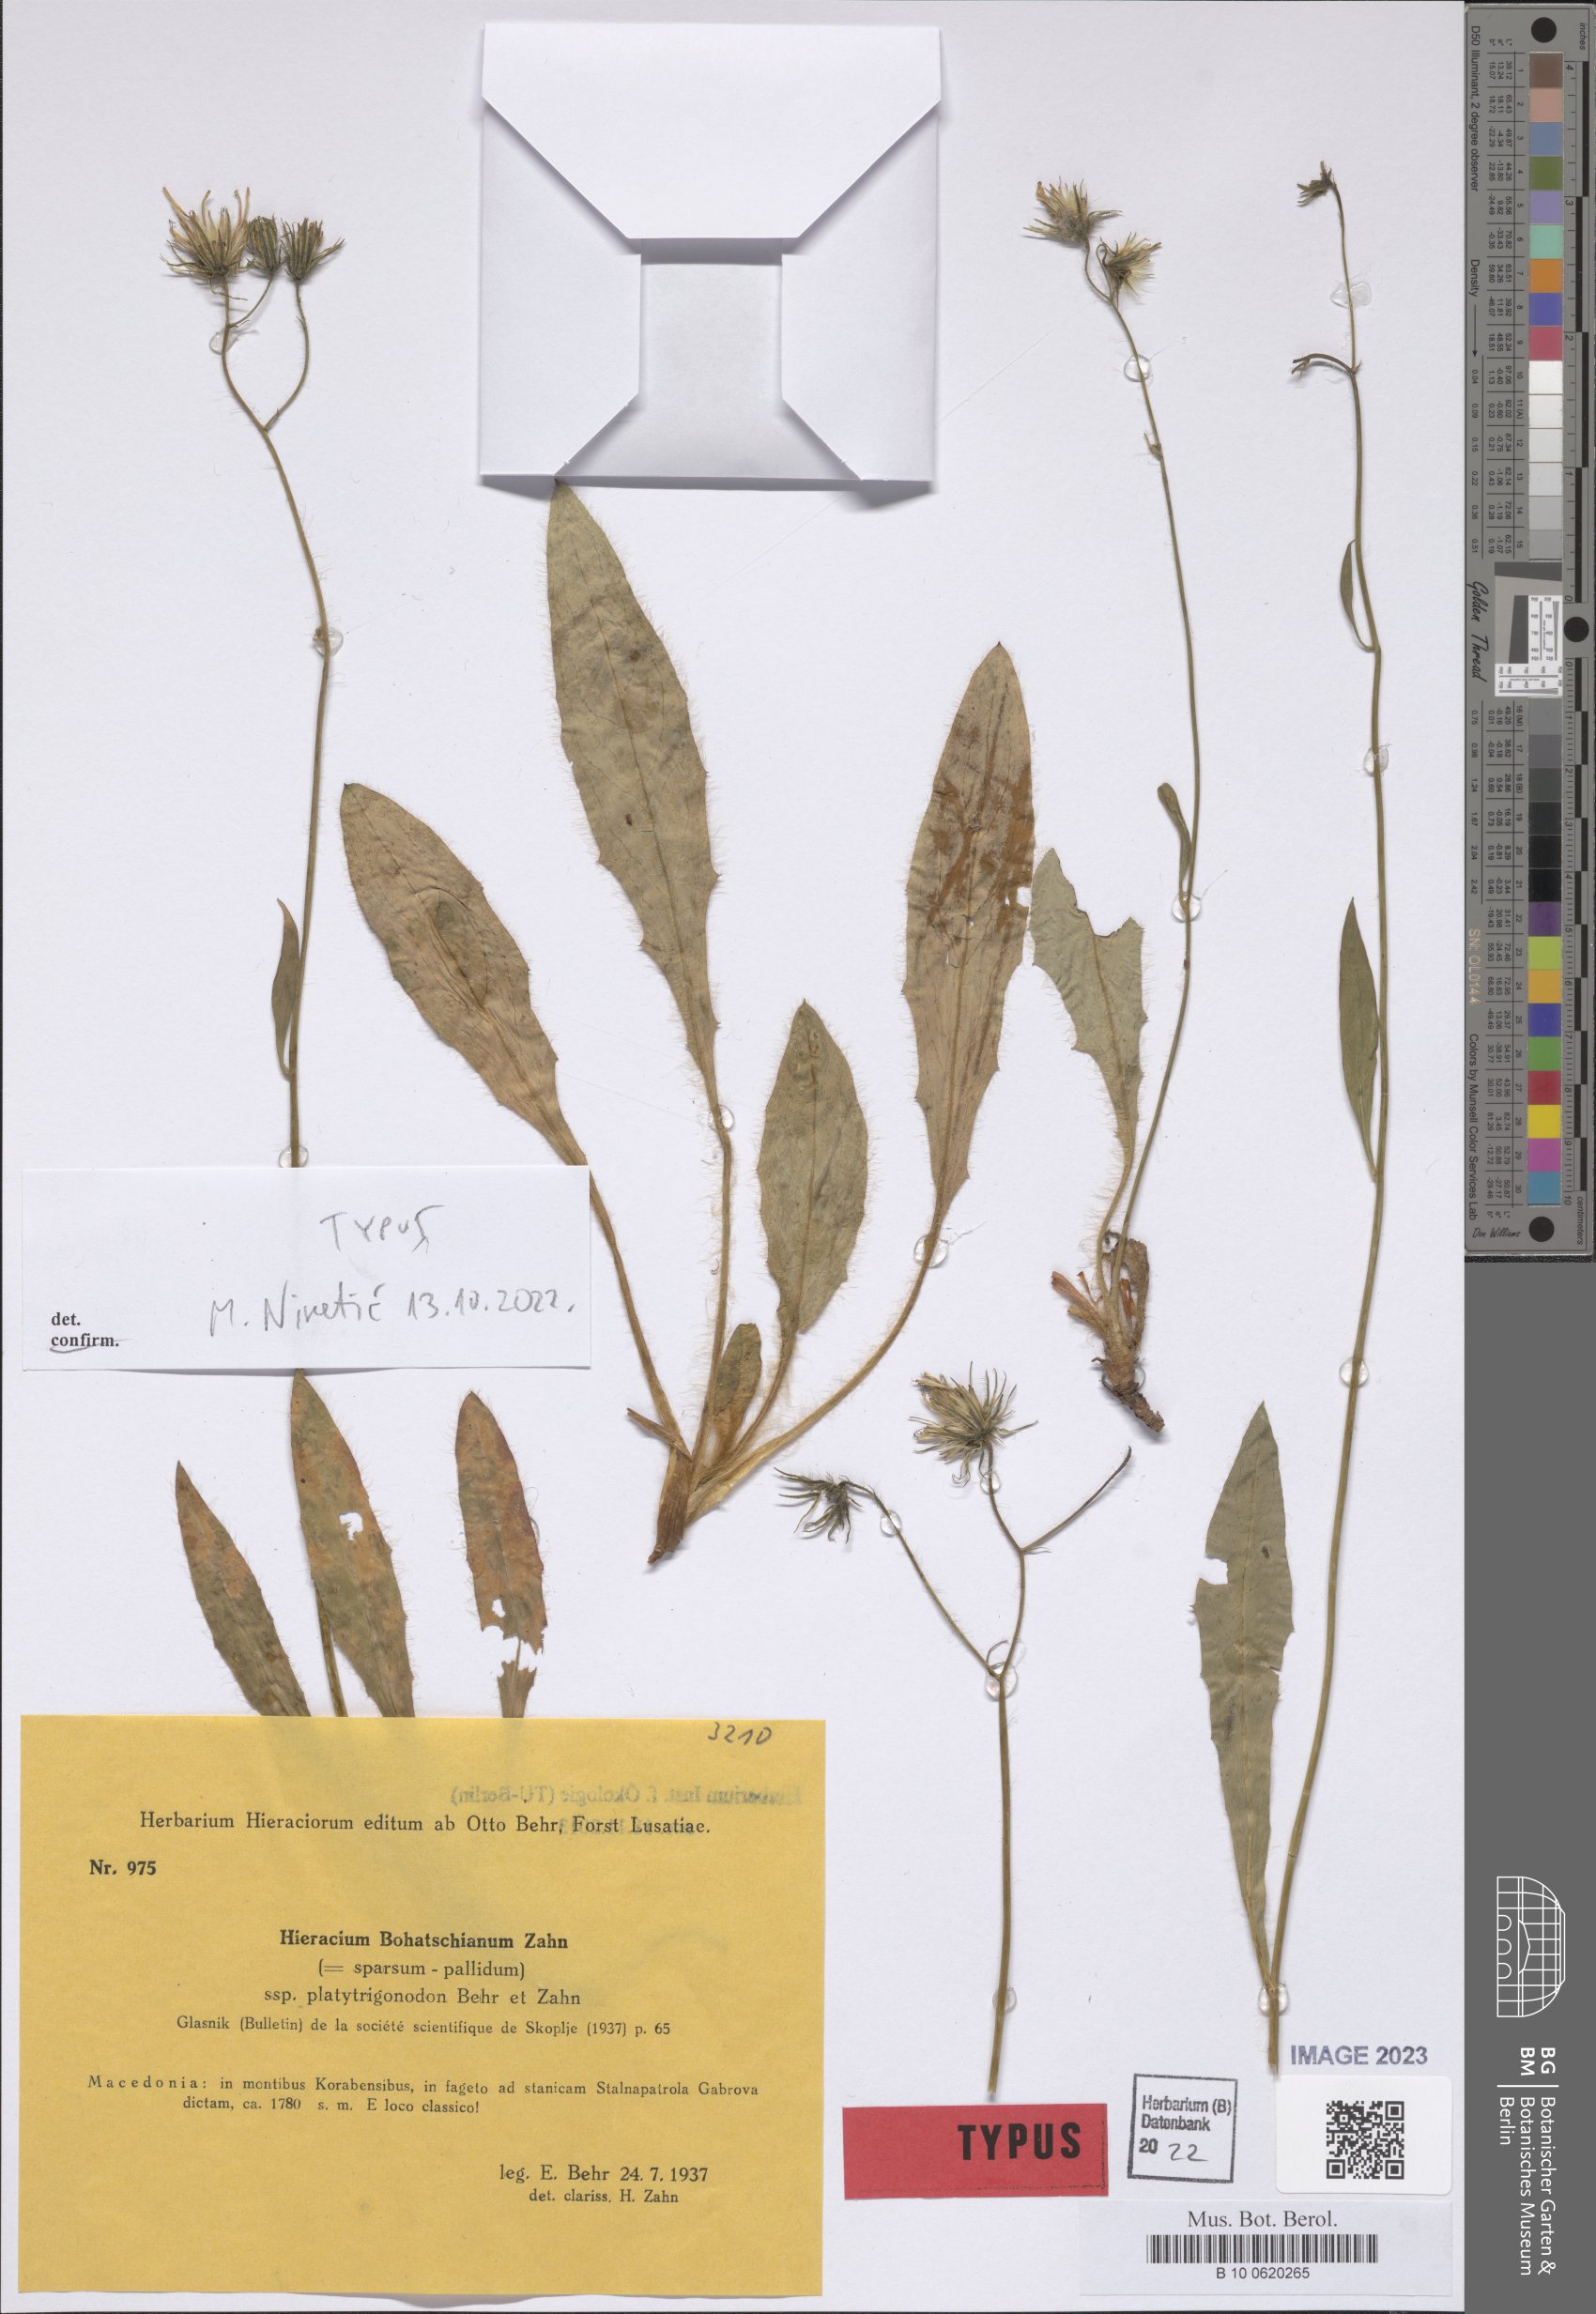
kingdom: Plantae
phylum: Tracheophyta
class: Magnoliopsida
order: Asterales
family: Asteraceae
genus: Hieracium
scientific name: Hieracium bohatschianum
